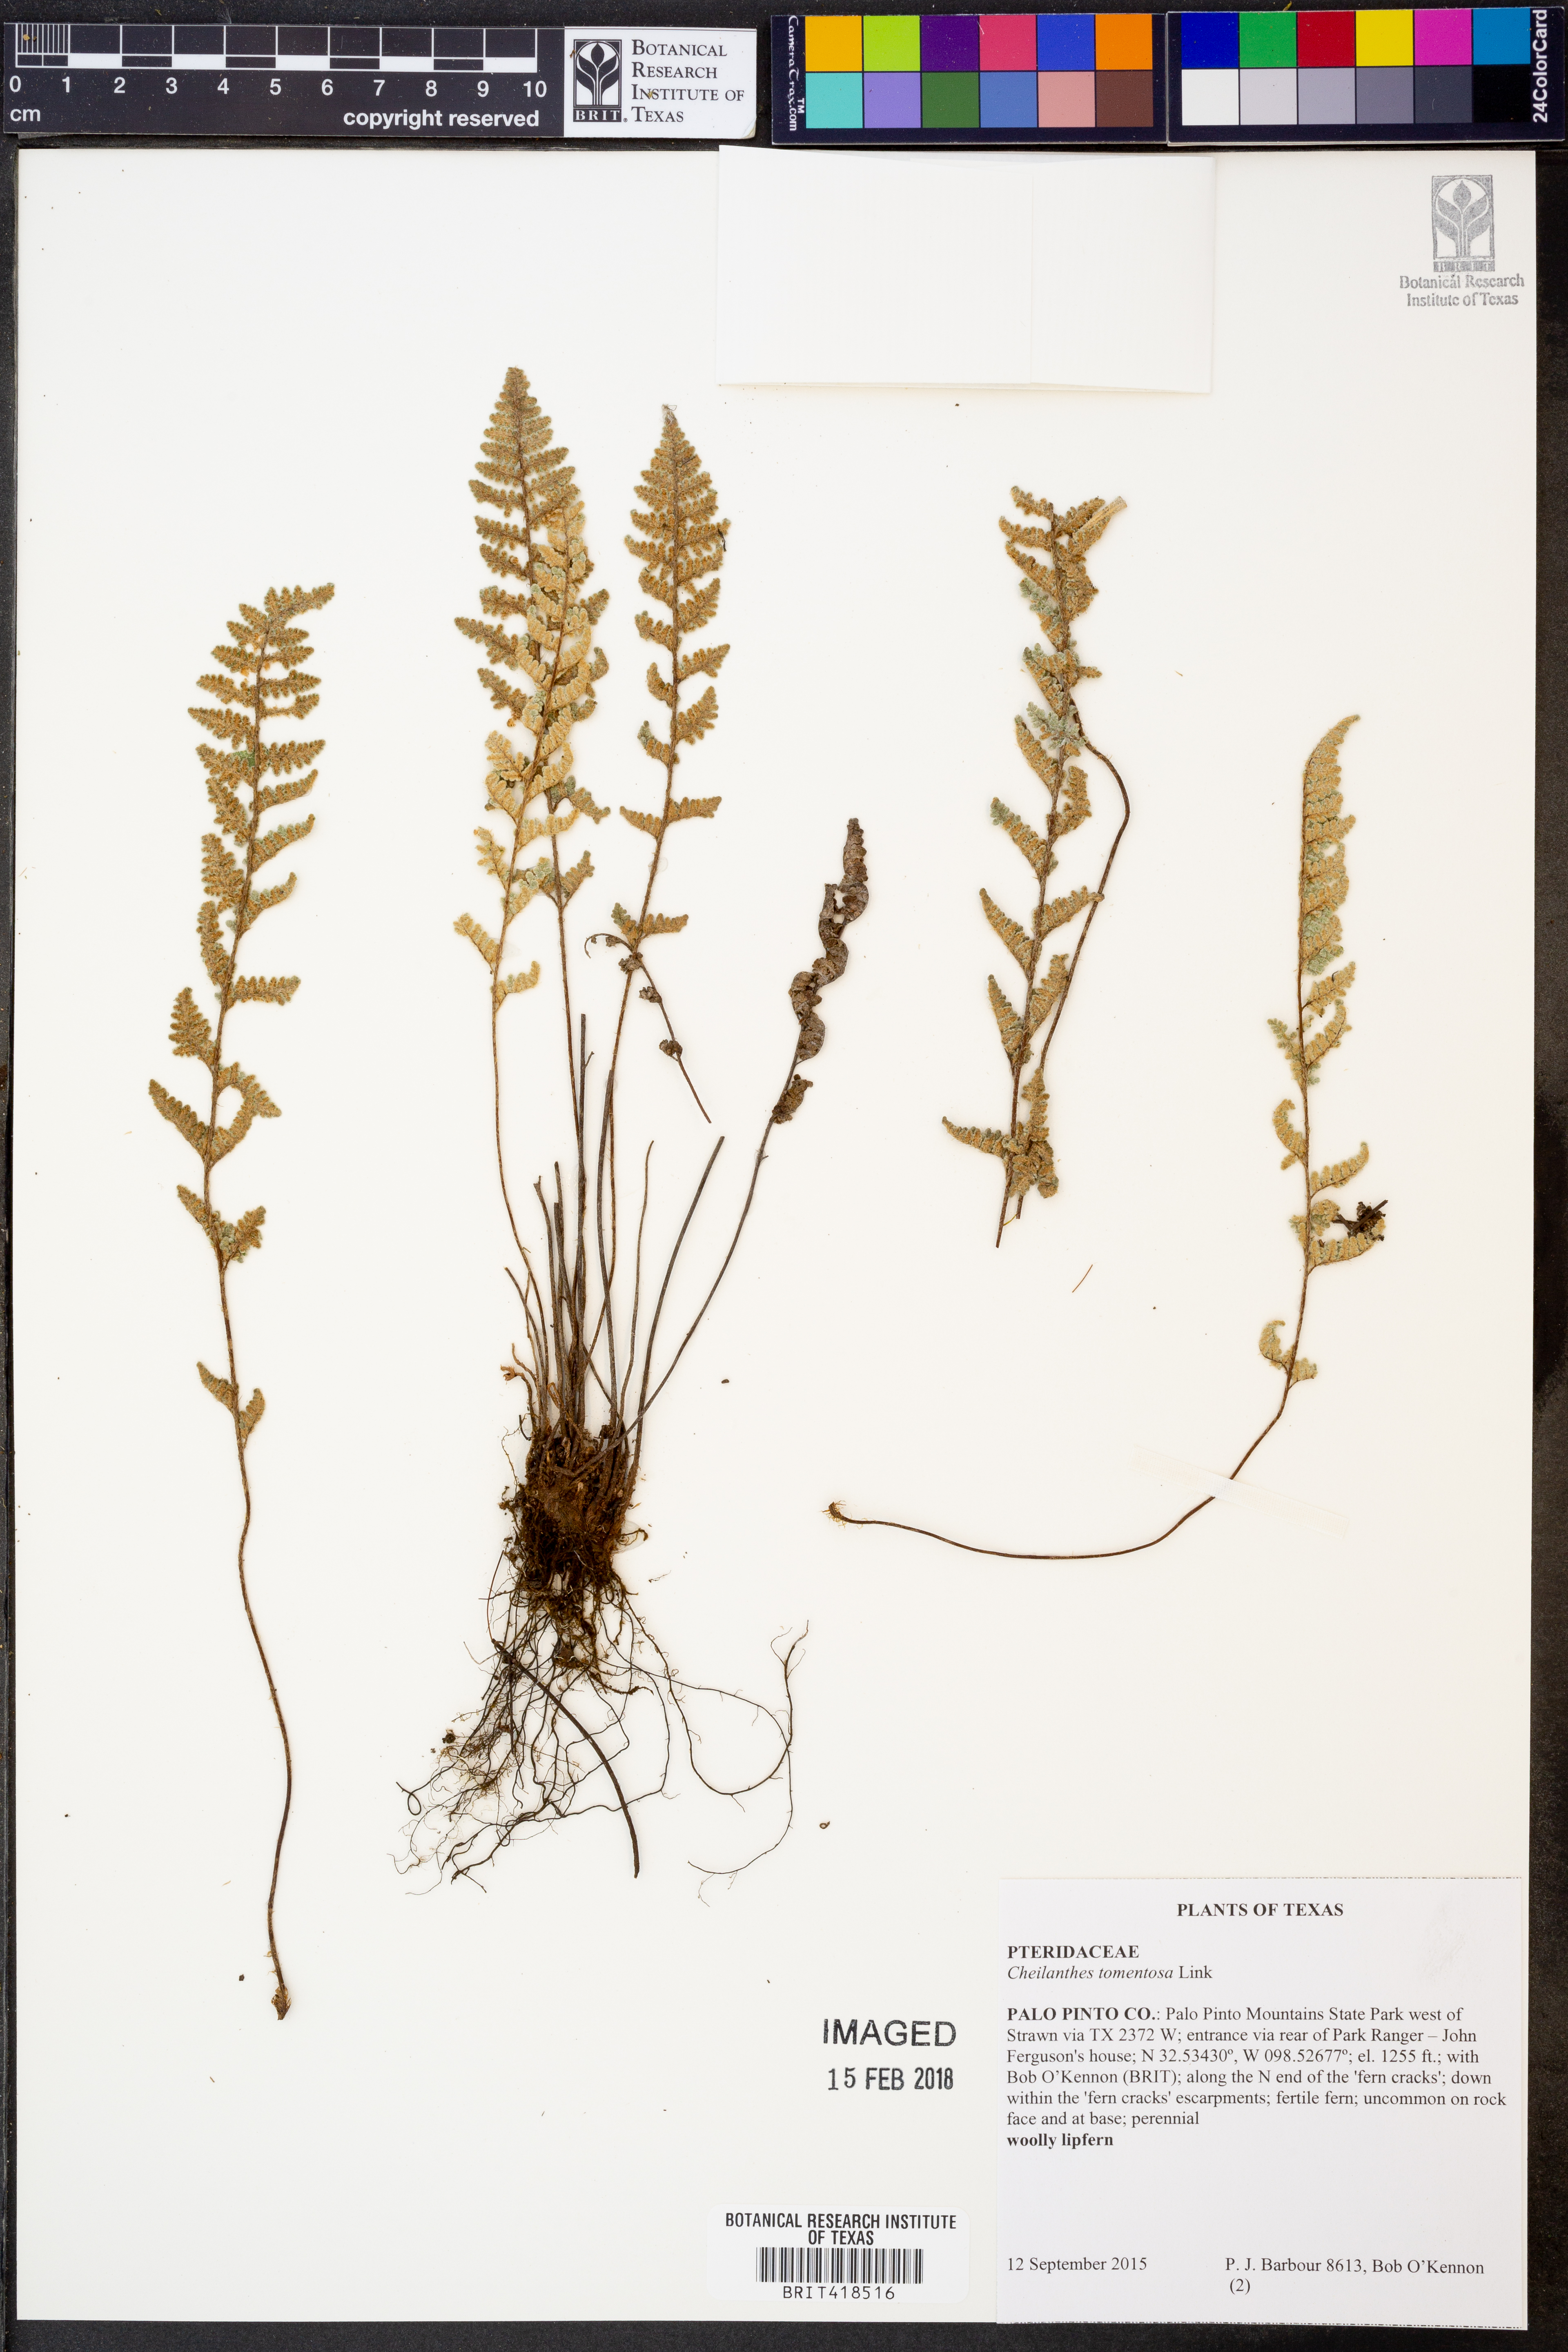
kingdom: Plantae
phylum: Tracheophyta
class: Polypodiopsida
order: Polypodiales
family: Pteridaceae
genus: Myriopteris
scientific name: Myriopteris tomentosa
